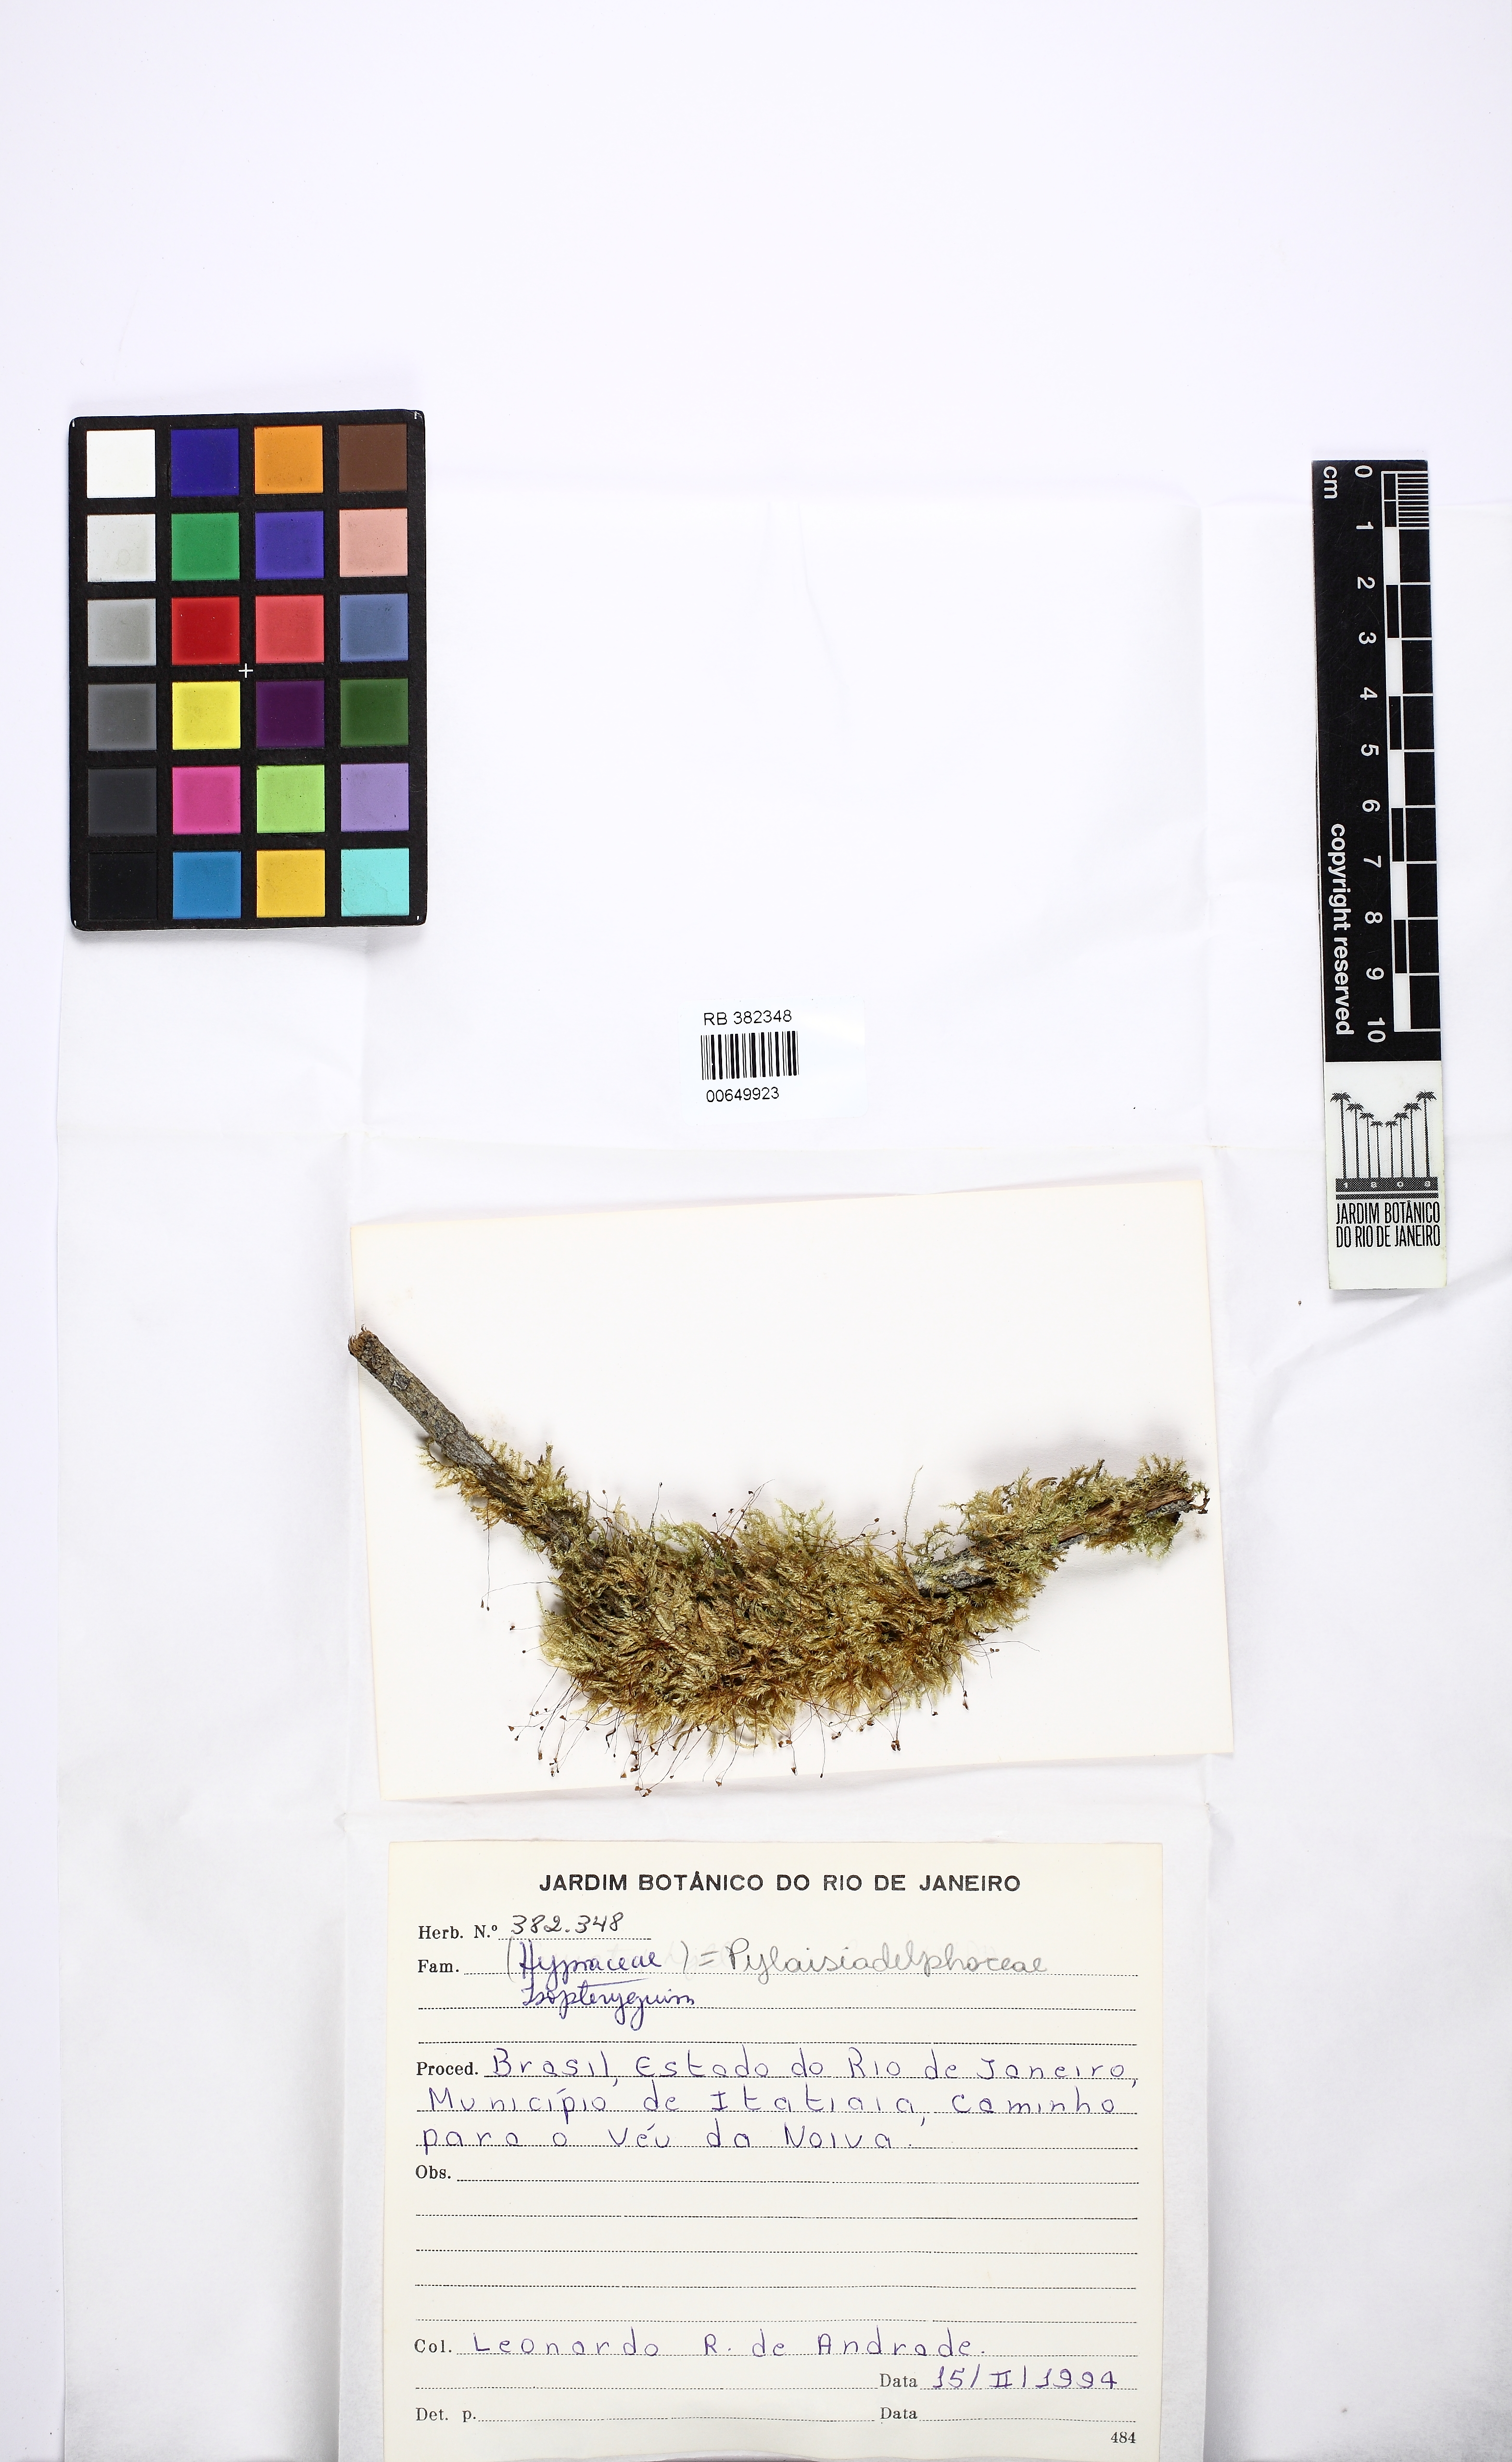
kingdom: Plantae
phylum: Bryophyta
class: Bryopsida
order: Hypnales
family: Pylaisiadelphaceae
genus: Isopterygium
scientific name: Isopterygium
